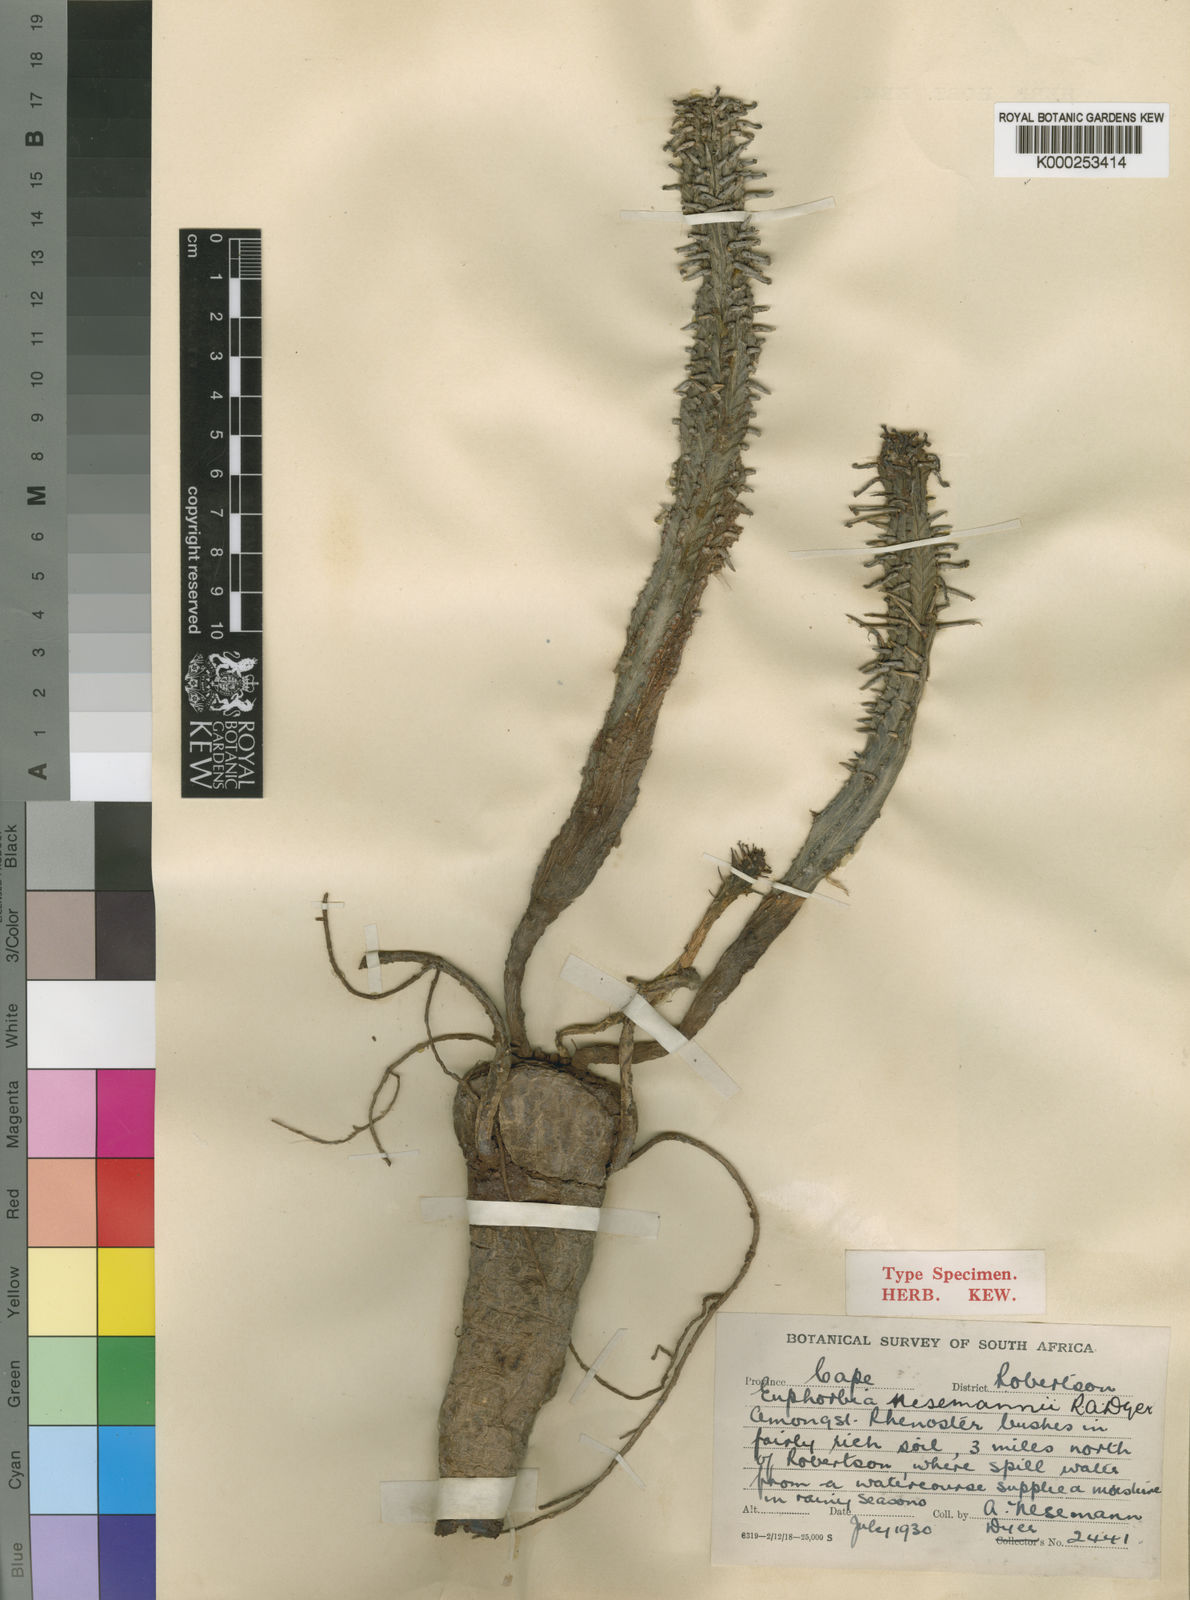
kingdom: Plantae
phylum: Tracheophyta
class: Magnoliopsida
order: Malpighiales
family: Euphorbiaceae
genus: Euphorbia
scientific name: Euphorbia mammillaris
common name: Corkscrew
